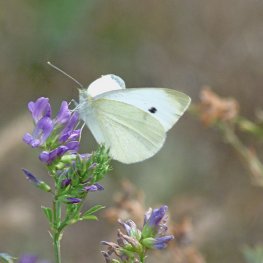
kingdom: Animalia
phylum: Arthropoda
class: Insecta
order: Lepidoptera
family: Pieridae
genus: Pieris
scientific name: Pieris rapae
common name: Cabbage White
